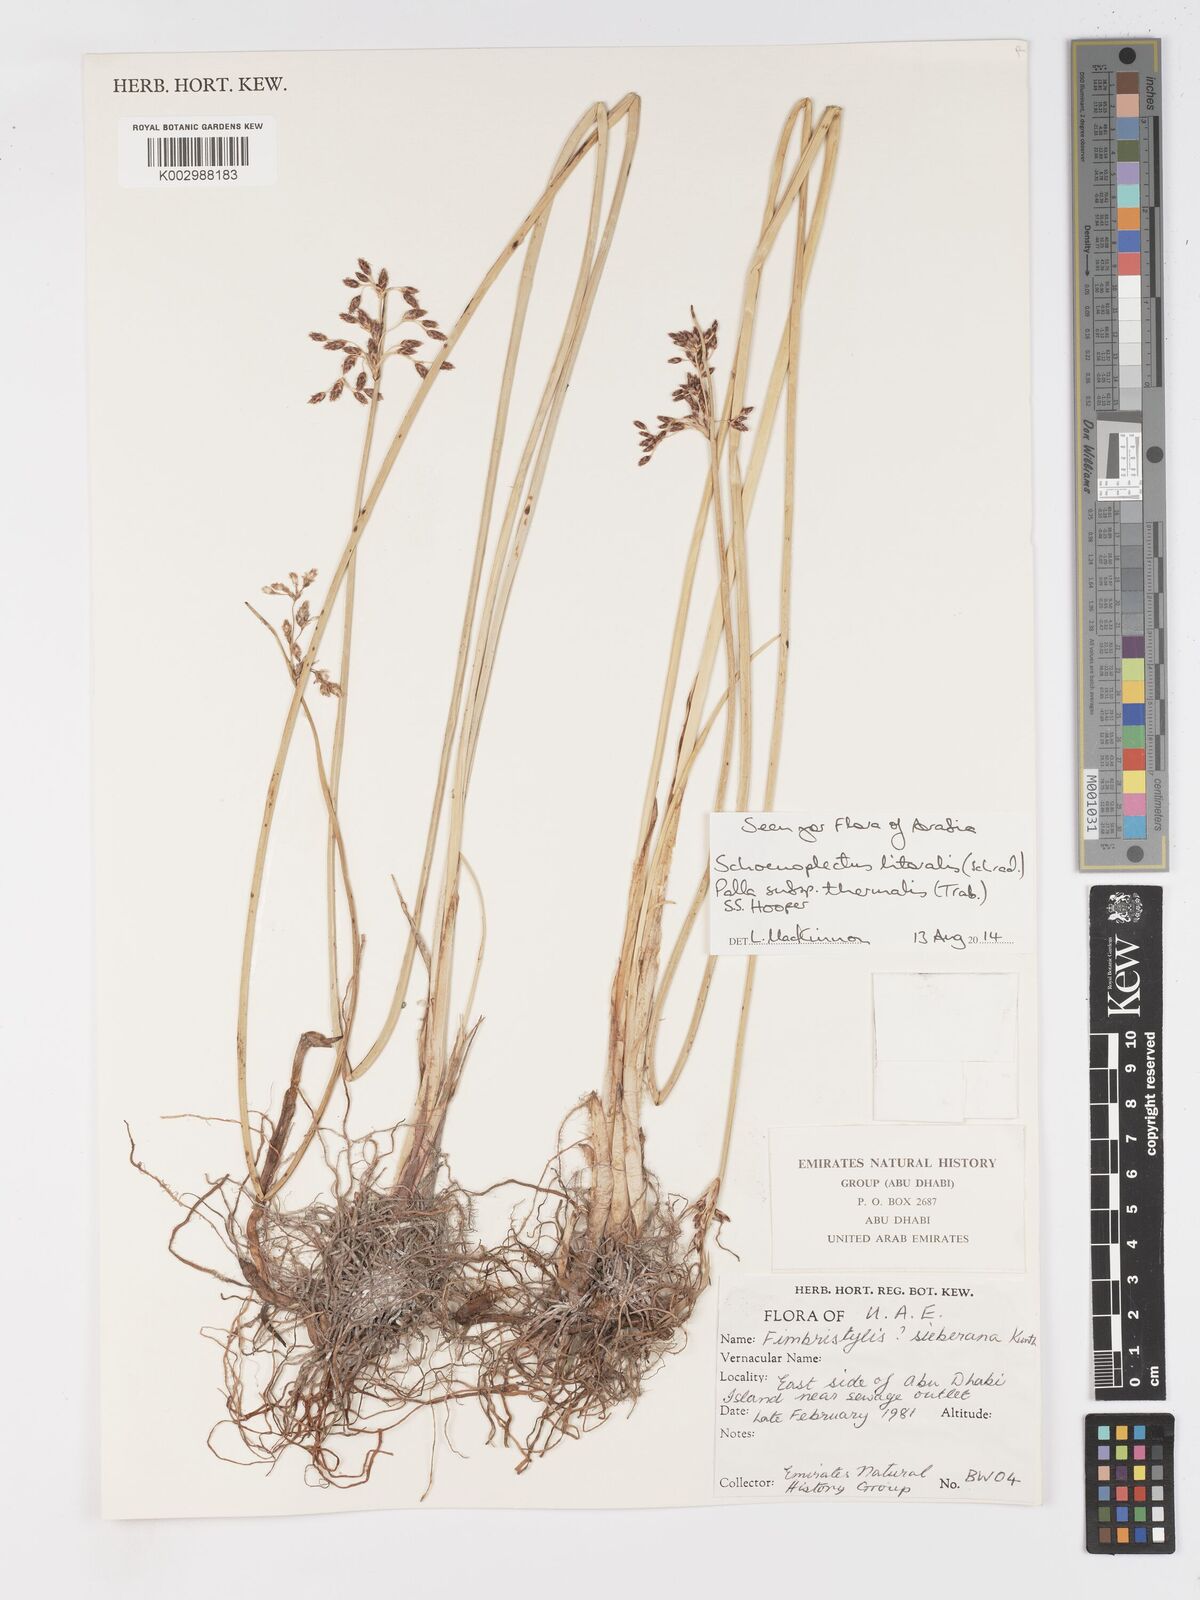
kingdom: Plantae
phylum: Tracheophyta
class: Liliopsida
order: Poales
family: Cyperaceae
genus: Schoenoplectus
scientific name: Schoenoplectus litoralis
